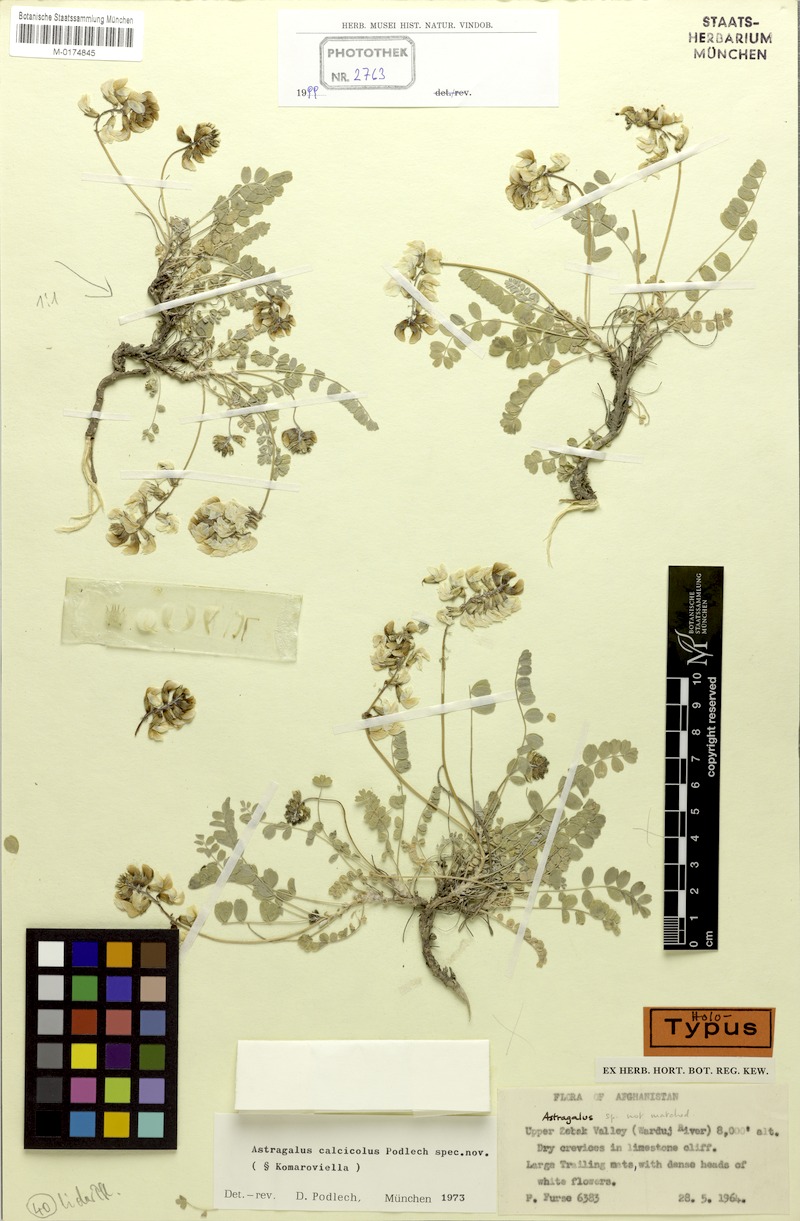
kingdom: Plantae
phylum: Tracheophyta
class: Magnoliopsida
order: Fabales
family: Fabaceae
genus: Astragalus
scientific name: Astragalus calcicola
